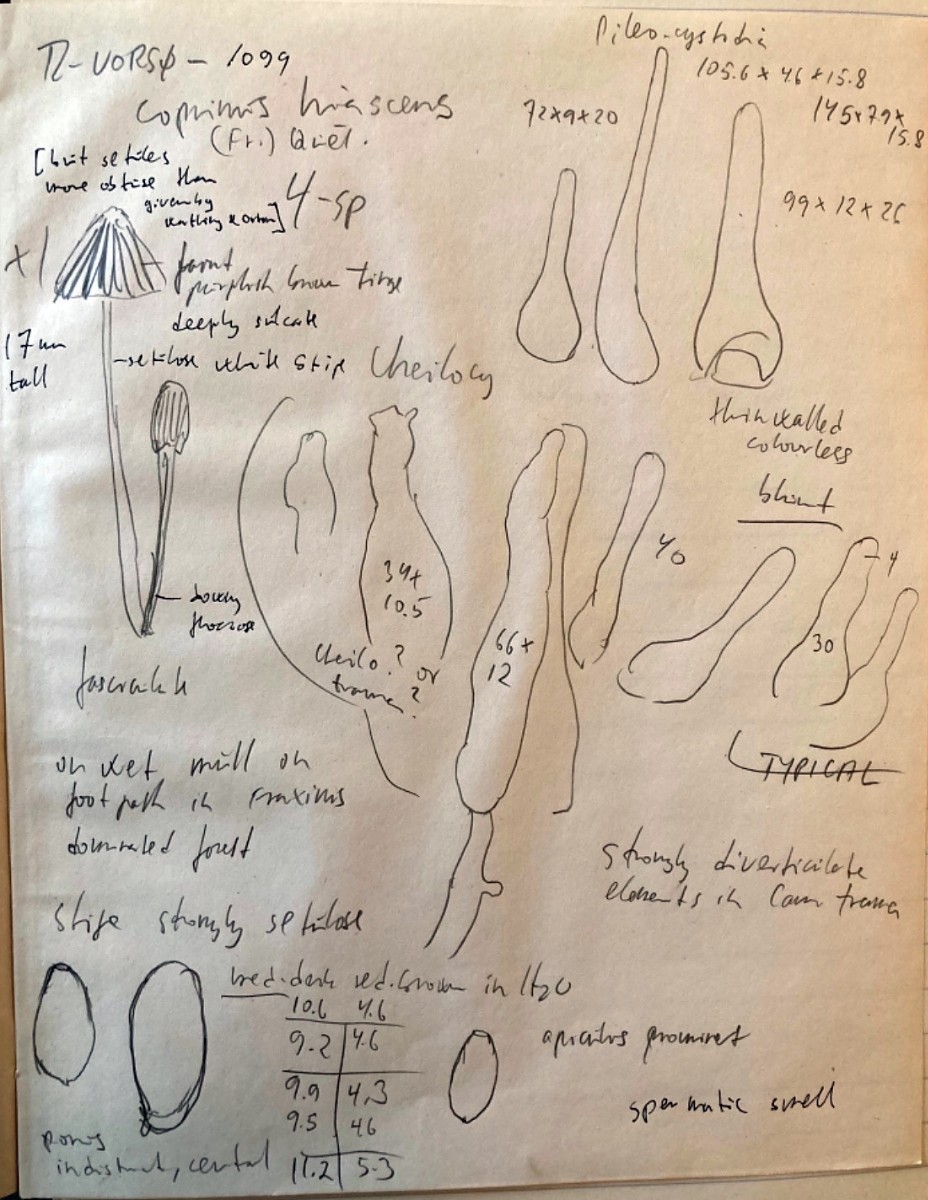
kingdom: Fungi
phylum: Basidiomycota
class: Agaricomycetes
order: Agaricales
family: Psathyrellaceae
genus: Tulosesus
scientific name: Tulosesus hiascens
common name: udspilet blækhat
